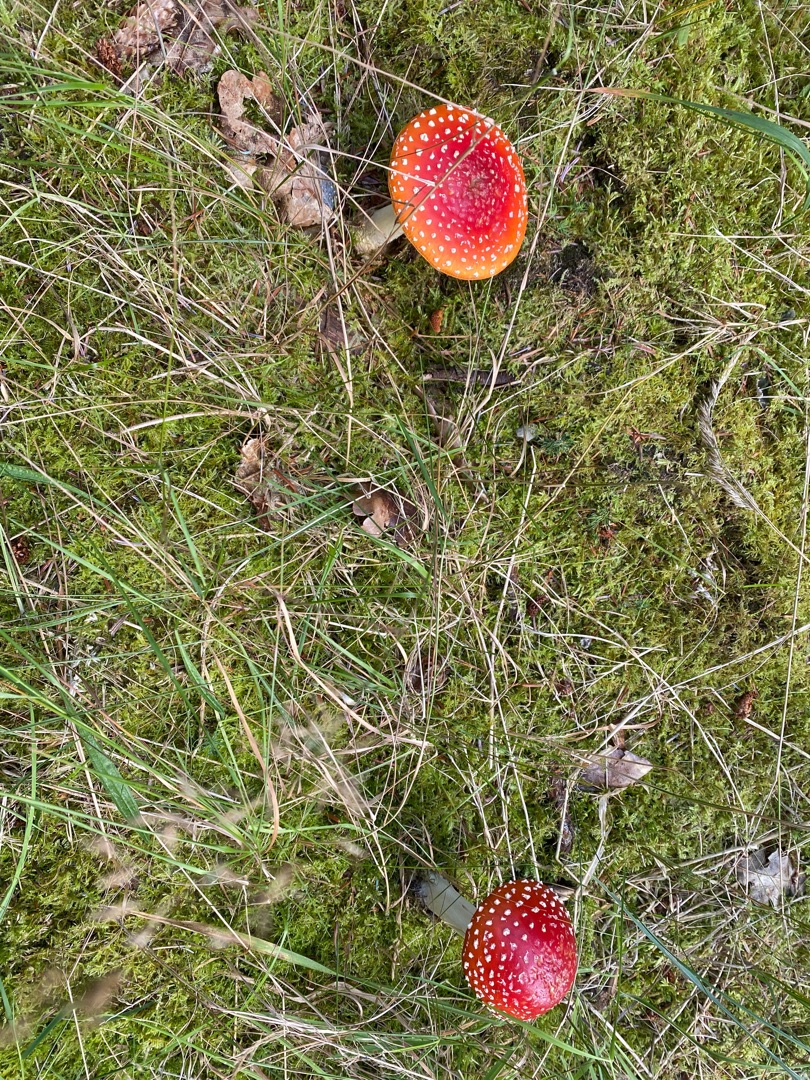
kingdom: Fungi
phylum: Basidiomycota
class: Agaricomycetes
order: Agaricales
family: Amanitaceae
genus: Amanita
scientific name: Amanita muscaria
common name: Rød fluesvamp
